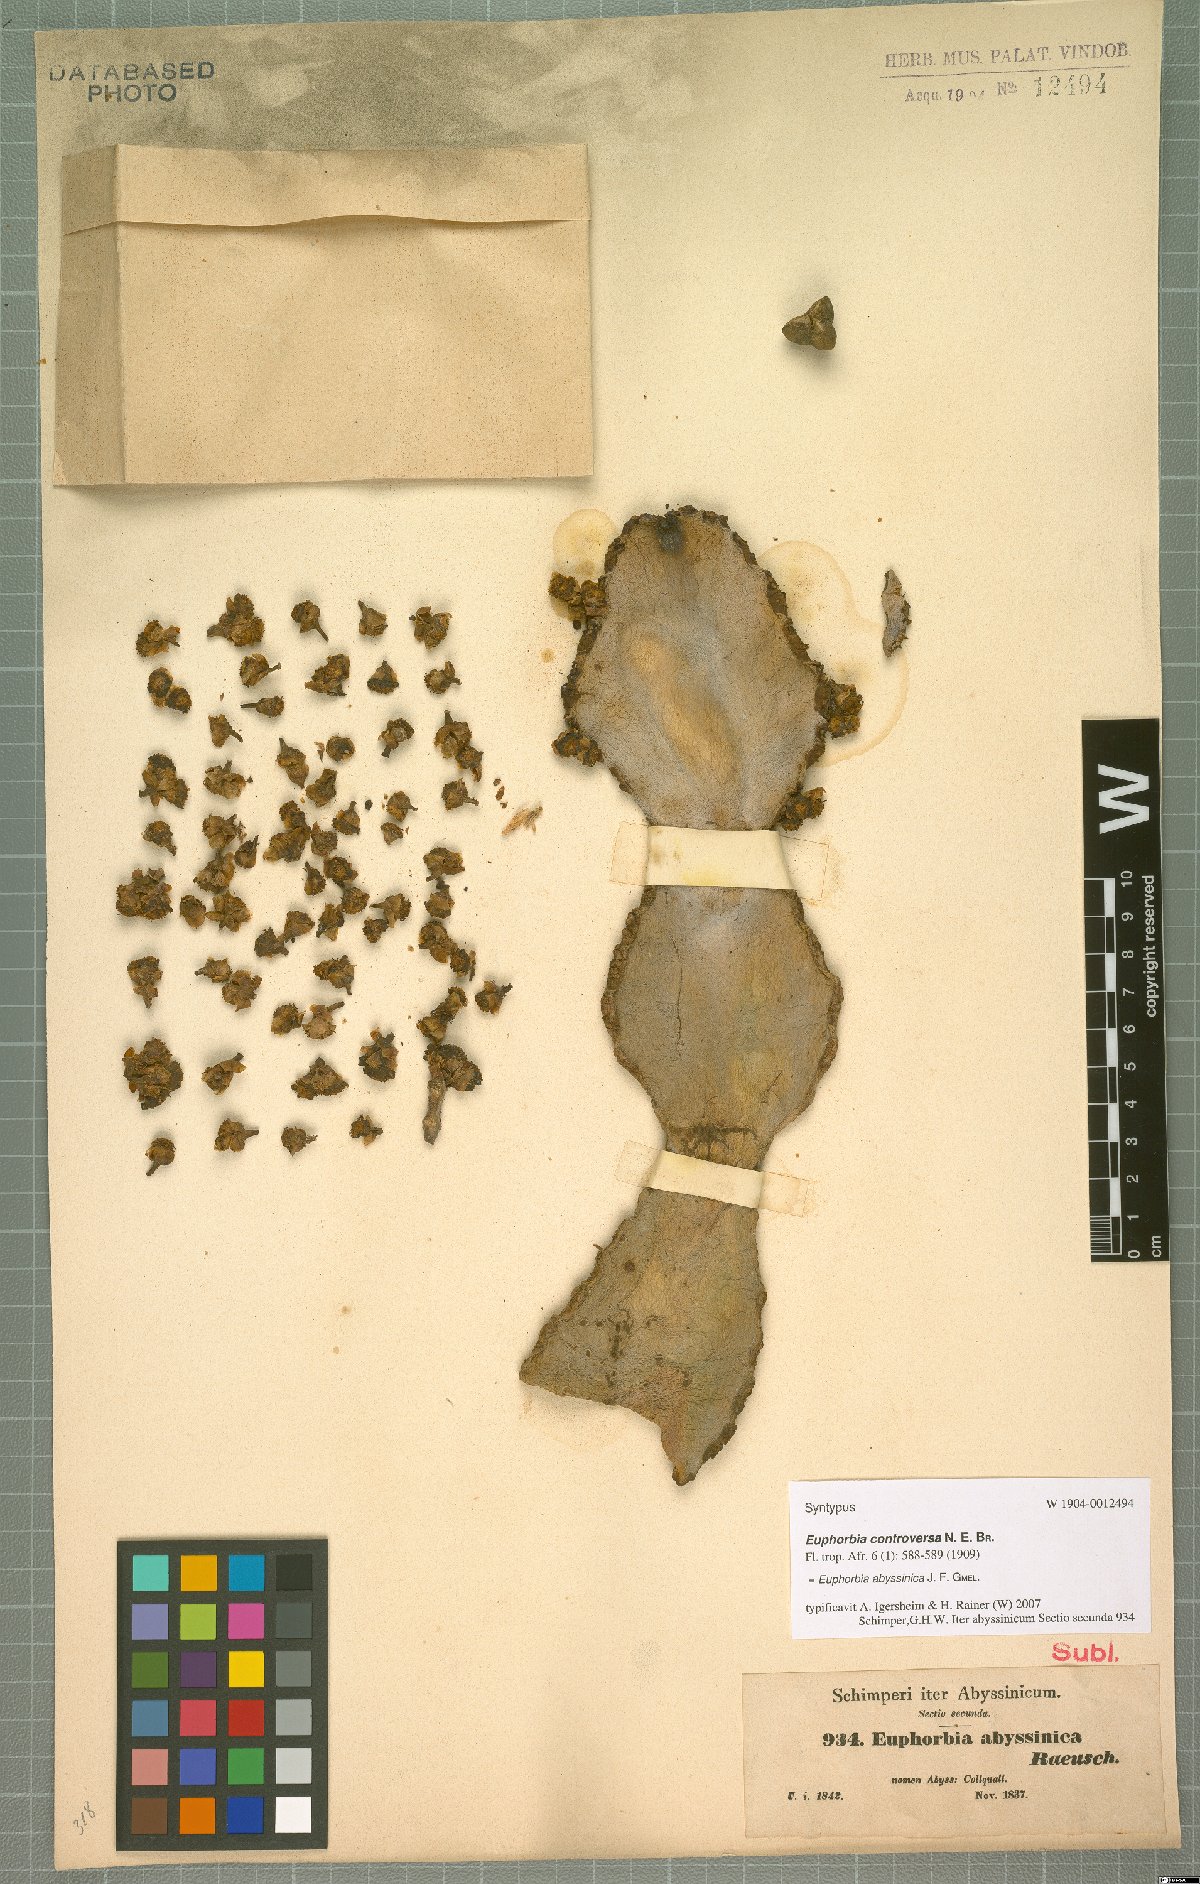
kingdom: Plantae
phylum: Tracheophyta
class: Magnoliopsida
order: Malpighiales
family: Euphorbiaceae
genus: Euphorbia
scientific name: Euphorbia abyssinica
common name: Abyssinian spurge
